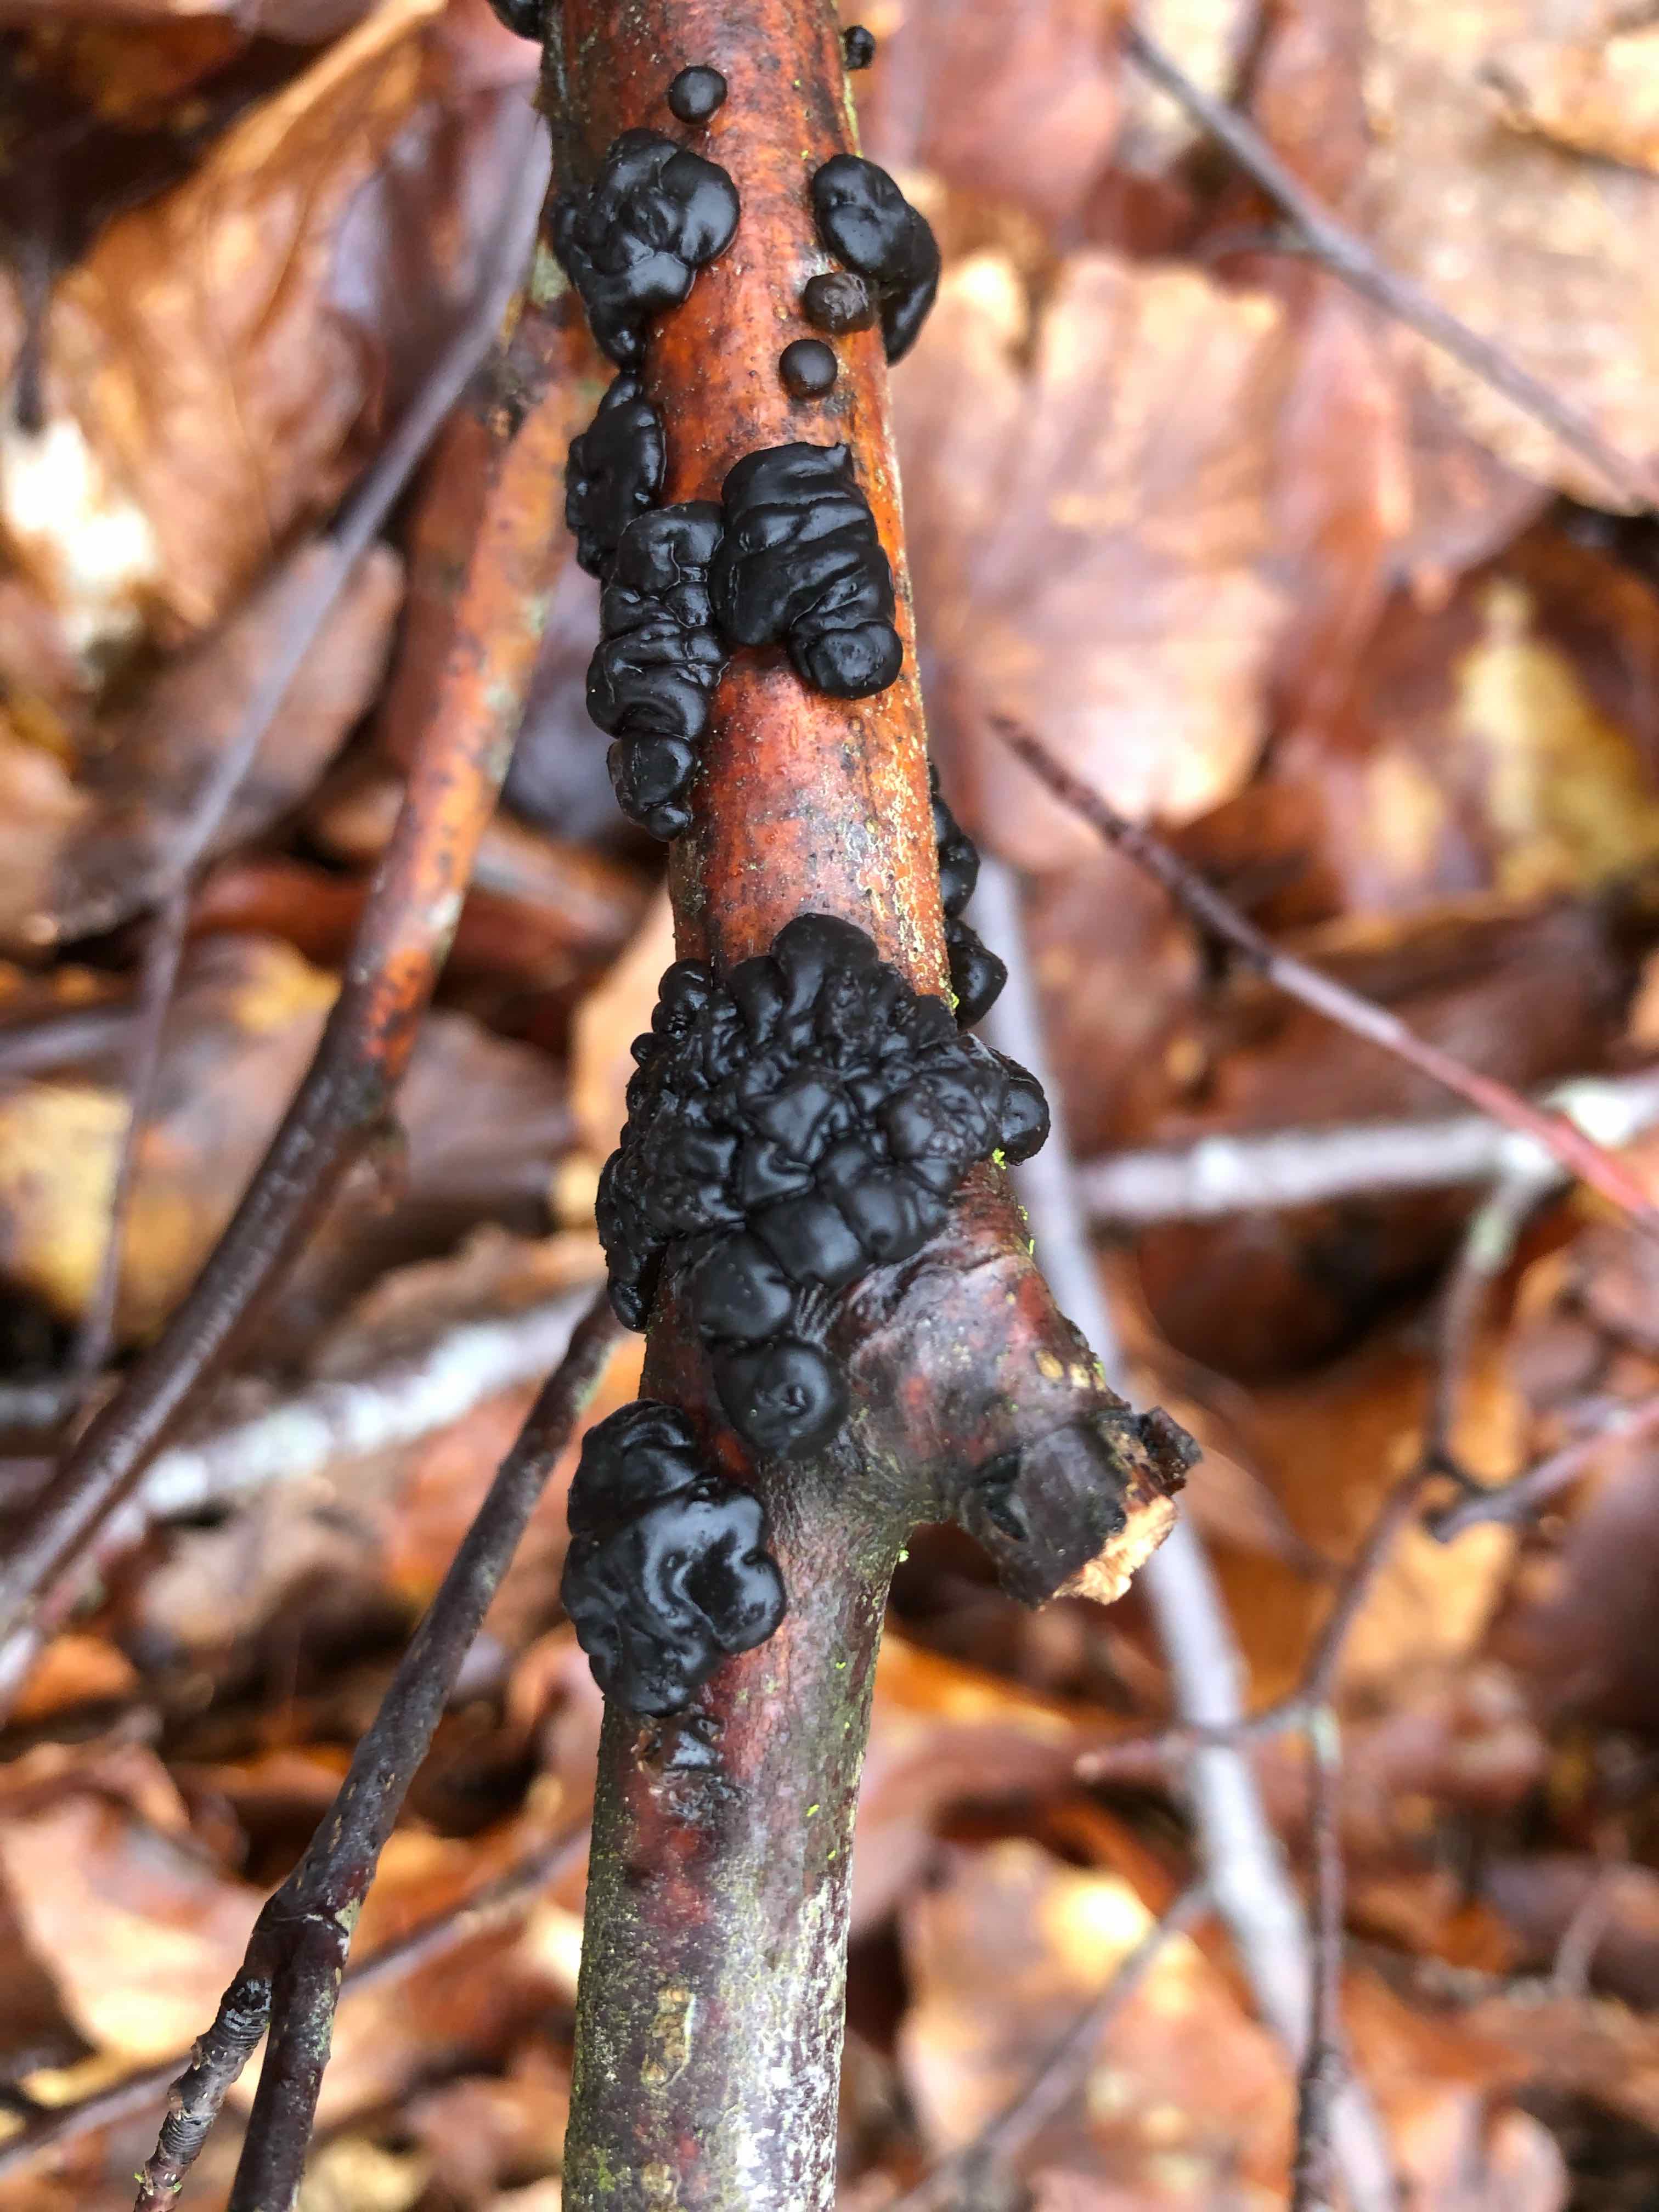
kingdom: Fungi
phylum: Basidiomycota
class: Agaricomycetes
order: Auriculariales
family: Auriculariaceae
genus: Exidia
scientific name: Exidia nigricans
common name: almindelig bævretop
